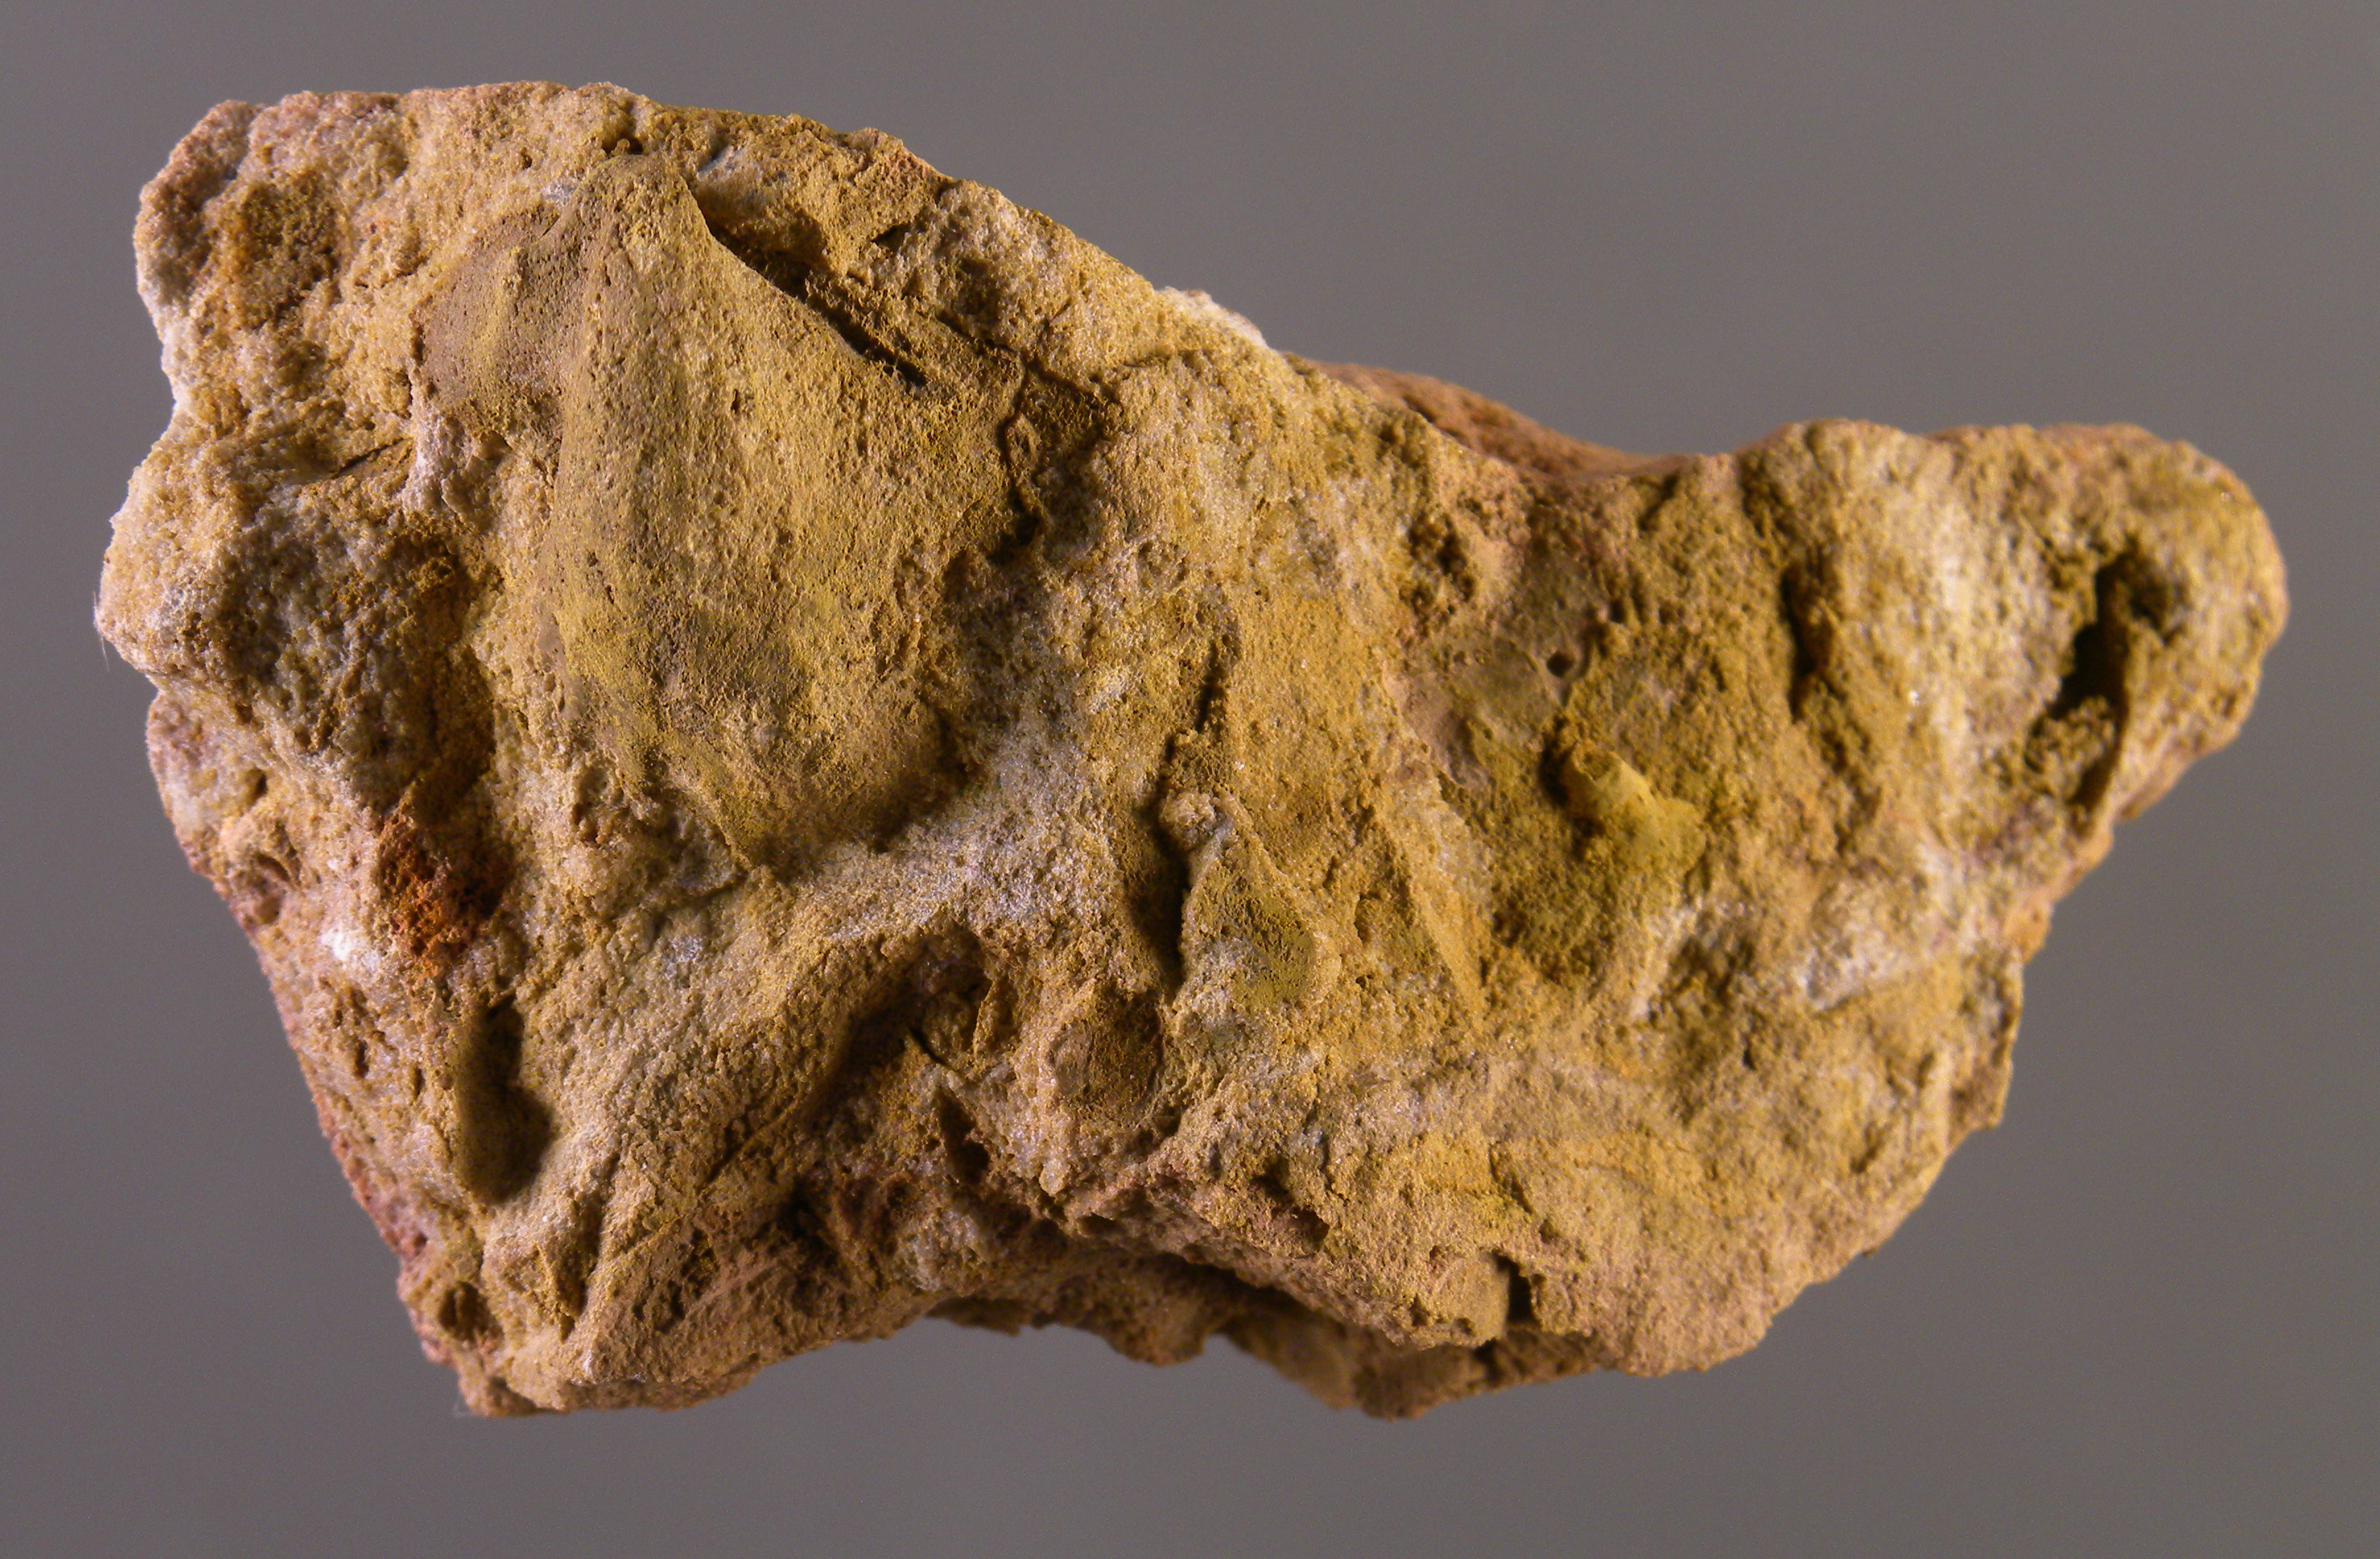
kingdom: Animalia
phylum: Mollusca
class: Bivalvia
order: Ostreida
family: Pterineidae
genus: Ptychopteria
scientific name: Ptychopteria
